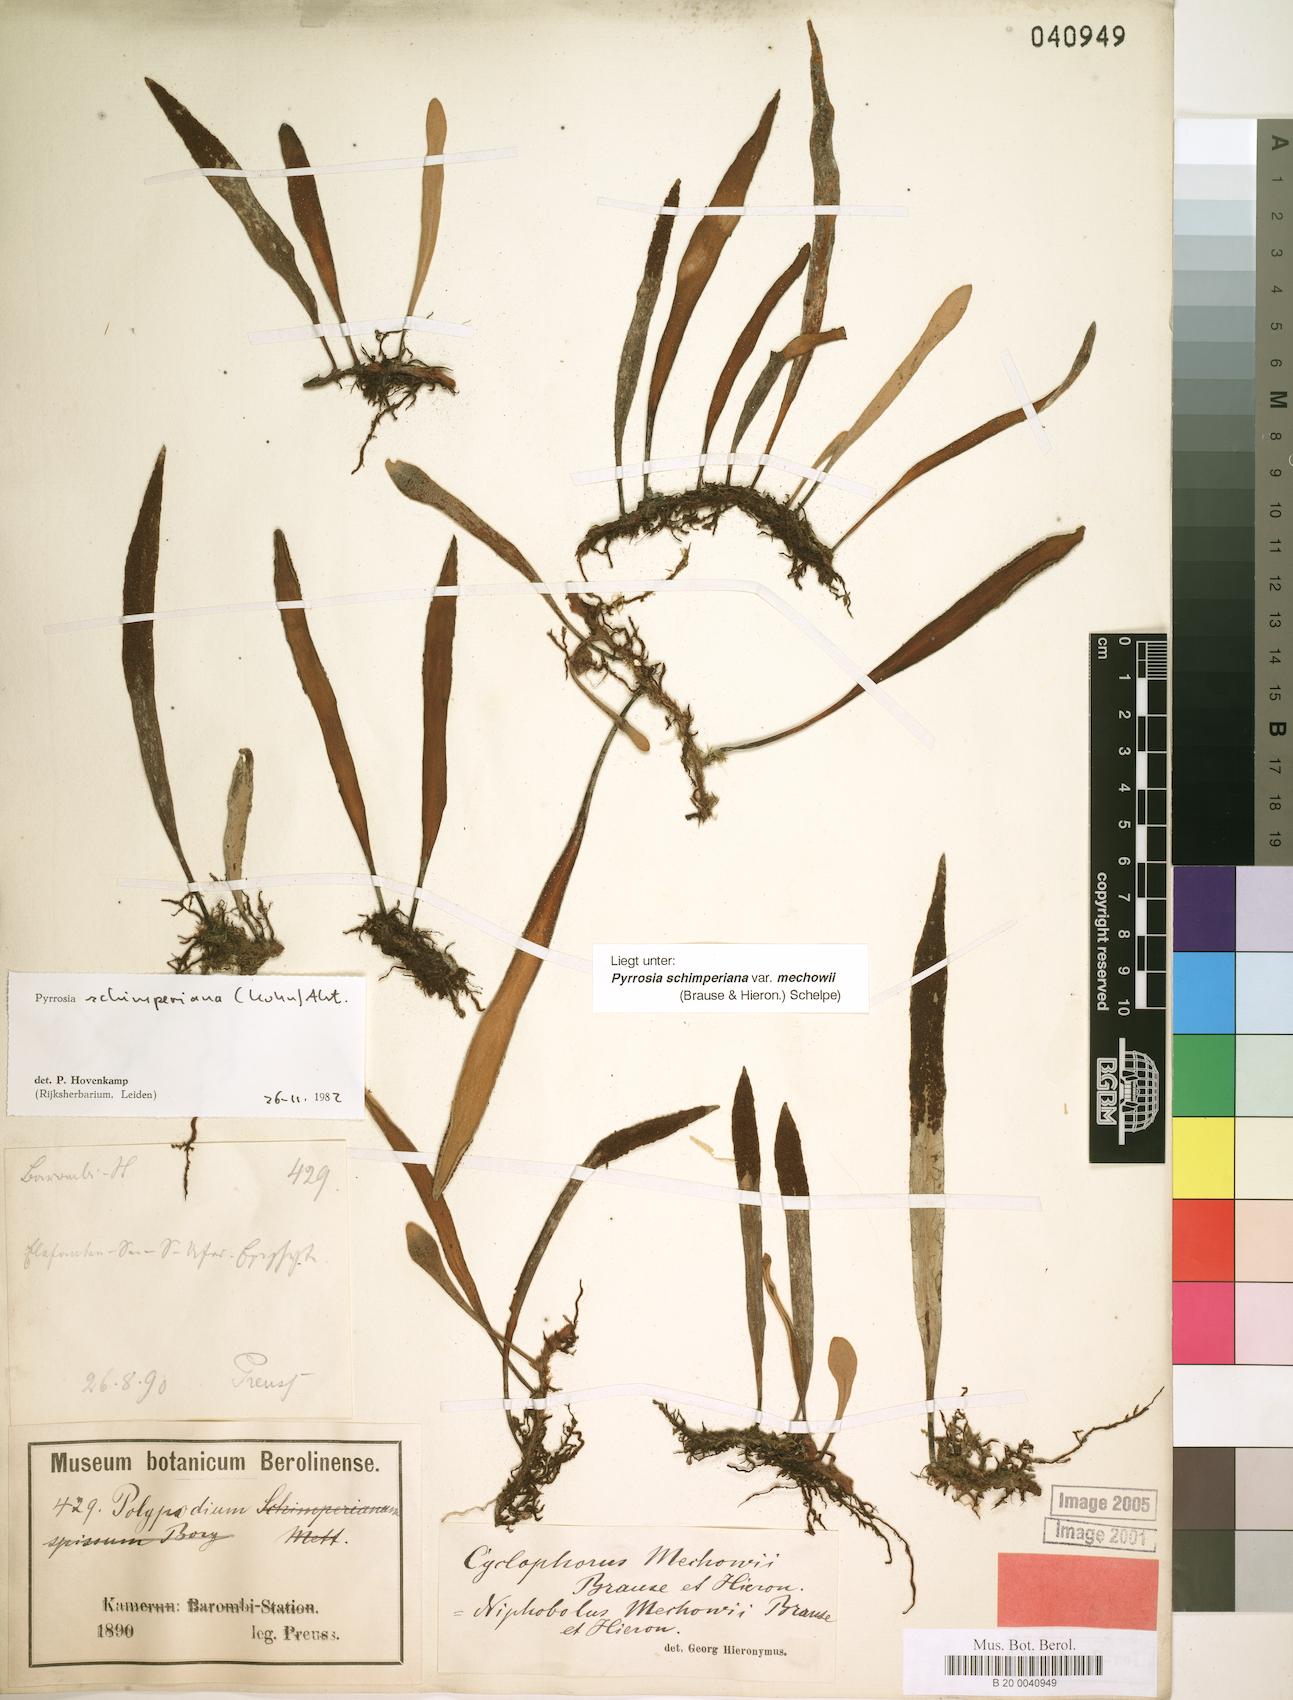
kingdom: Plantae
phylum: Tracheophyta
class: Polypodiopsida
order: Polypodiales
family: Polypodiaceae
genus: Hovenkampia
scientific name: Hovenkampia schimperiana
